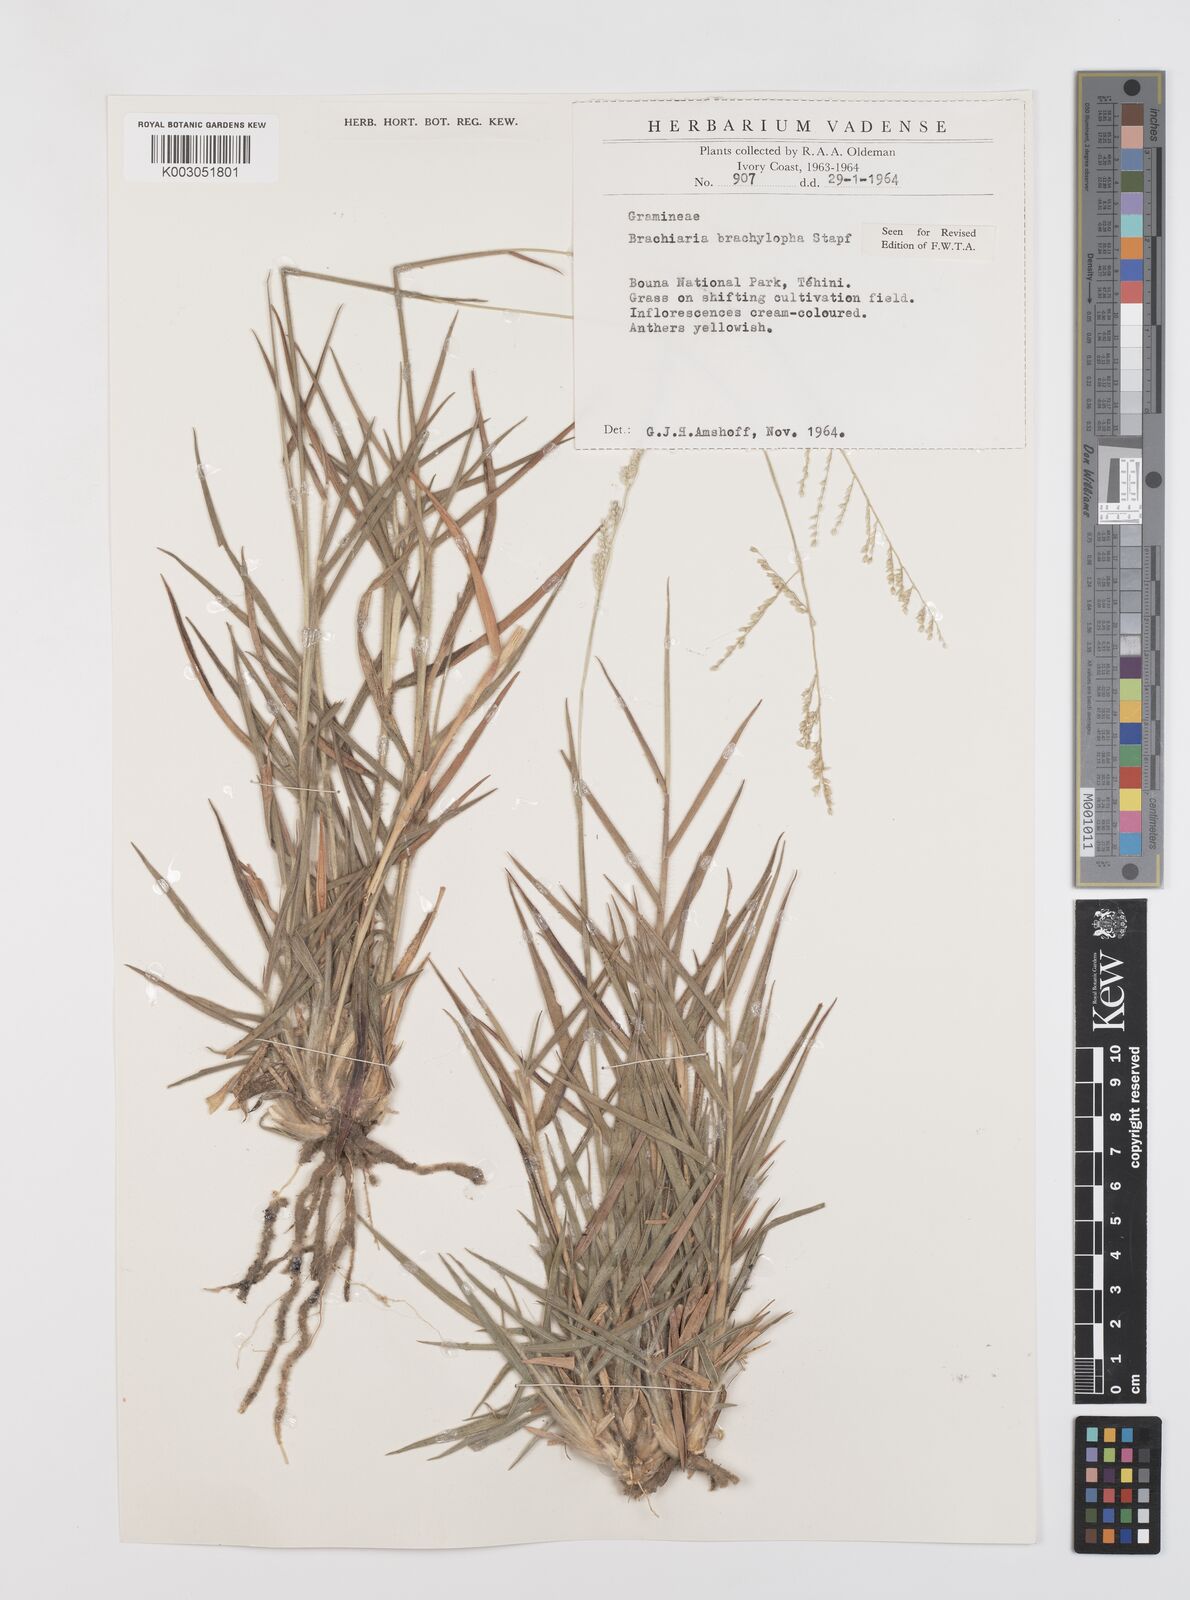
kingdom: Plantae
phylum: Tracheophyta
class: Liliopsida
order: Poales
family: Poaceae
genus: Urochloa
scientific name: Urochloa serrata
